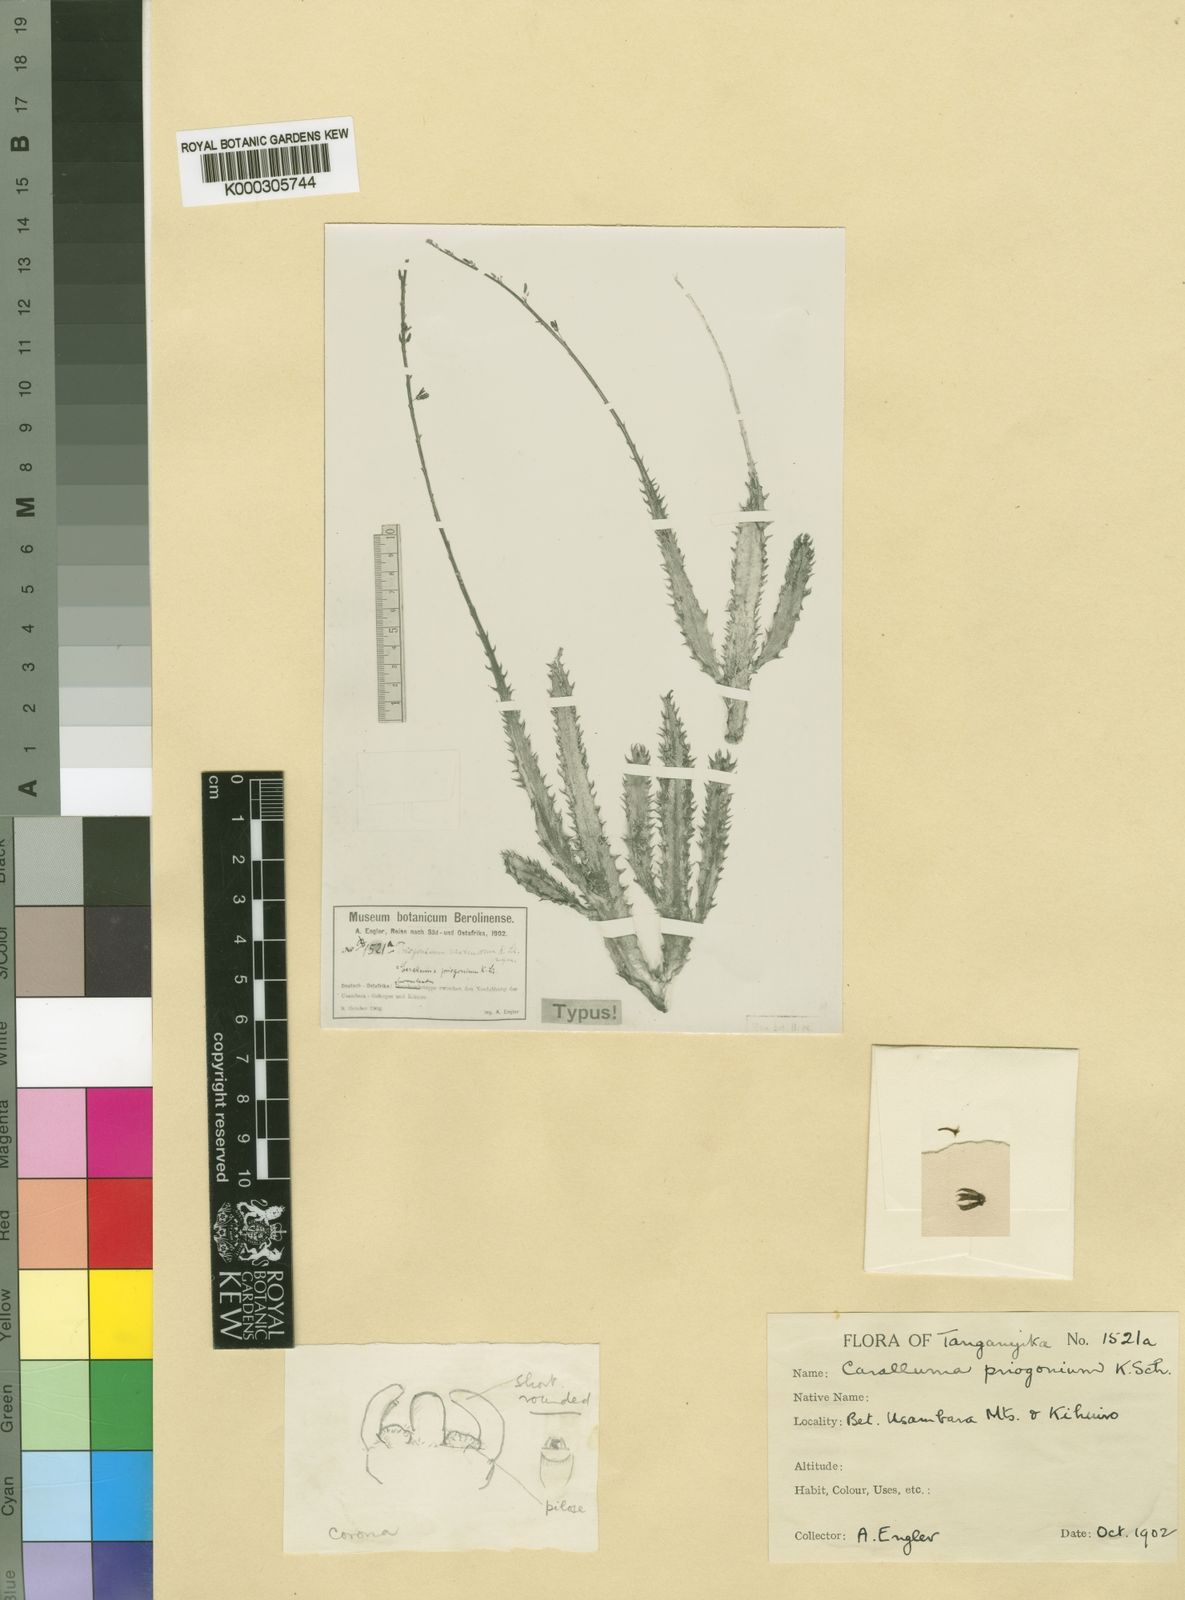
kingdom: Plantae
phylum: Tracheophyta
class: Magnoliopsida
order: Gentianales
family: Apocynaceae
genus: Ceropegia
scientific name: Ceropegia priogonium
